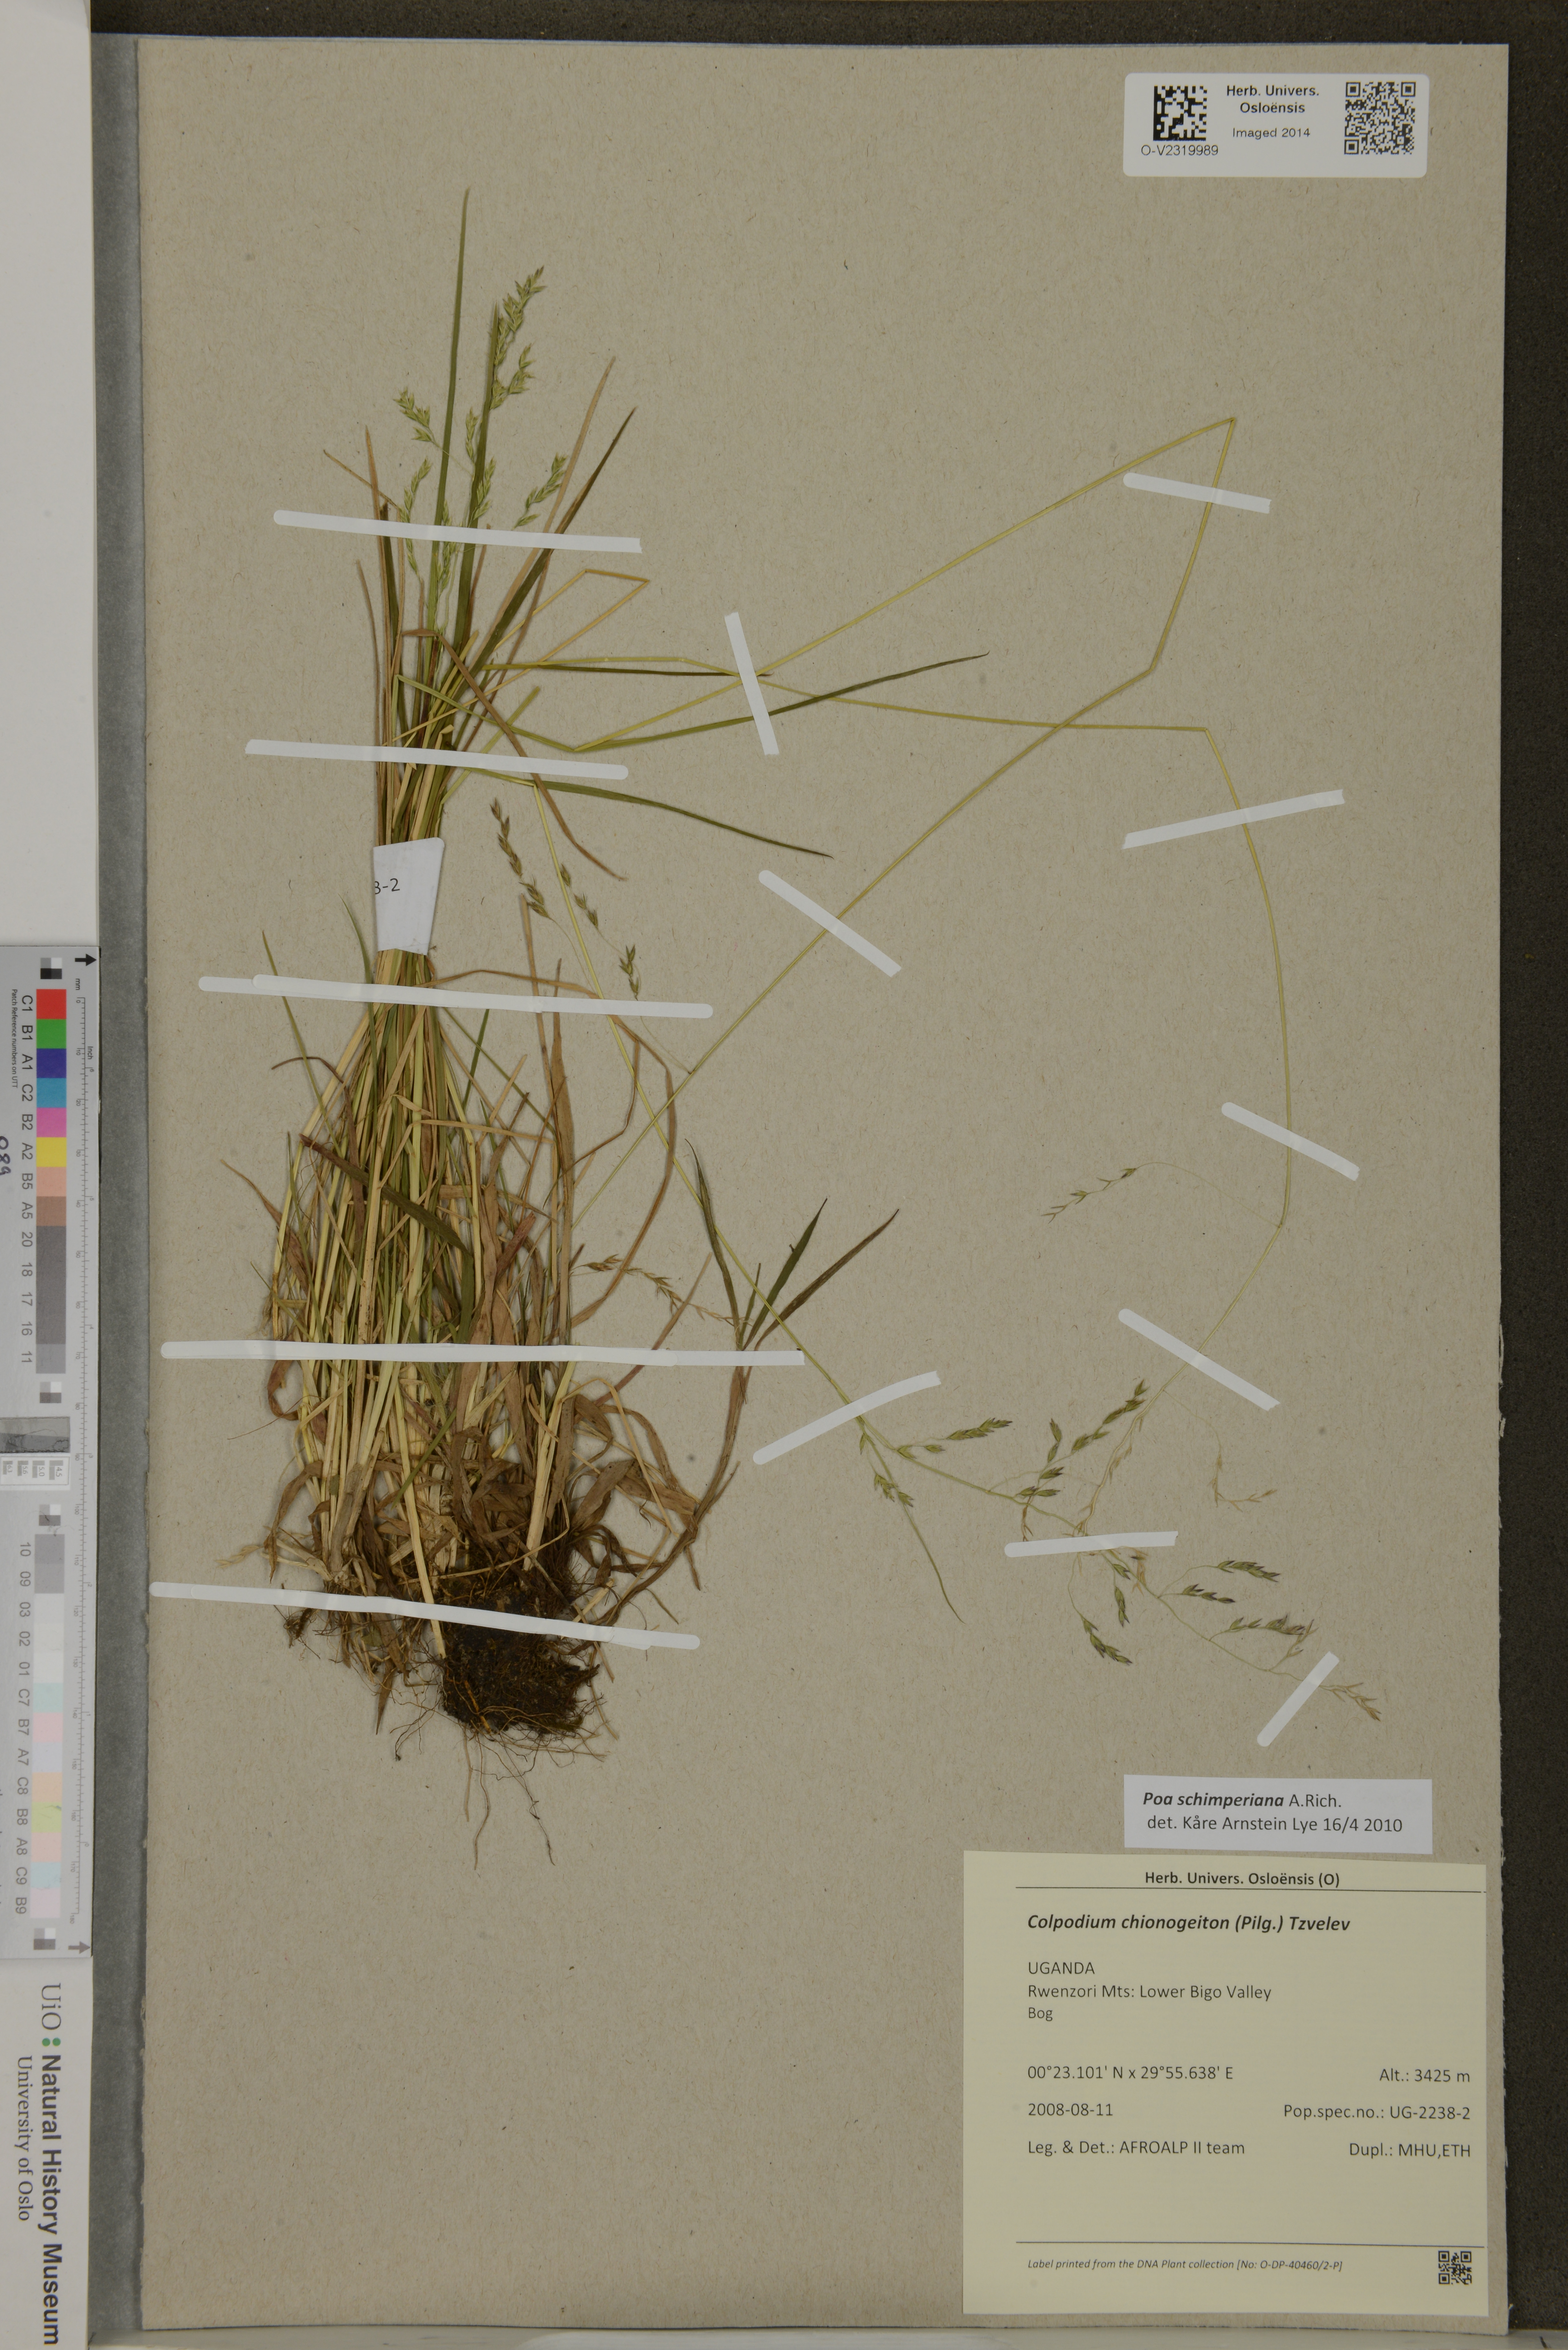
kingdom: Plantae
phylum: Tracheophyta
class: Liliopsida
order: Poales
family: Poaceae
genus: Poa
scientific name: Poa schimperiana
